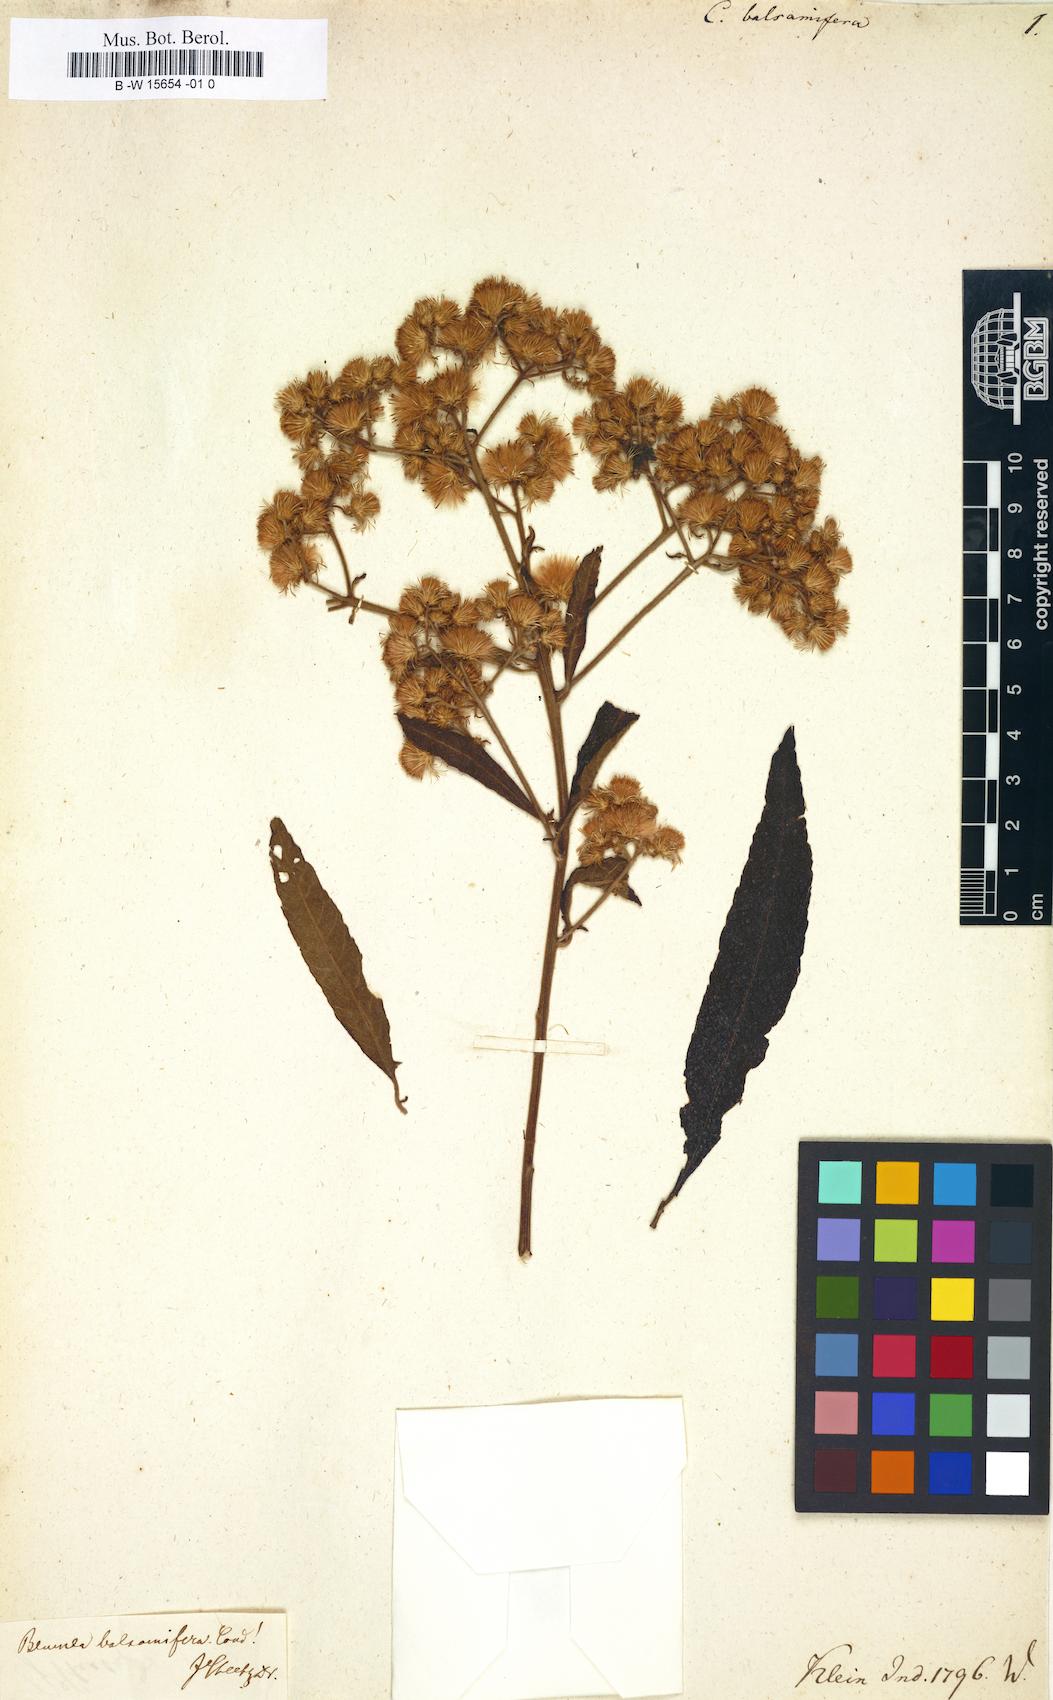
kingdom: Plantae
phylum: Tracheophyta
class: Magnoliopsida
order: Asterales
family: Asteraceae
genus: Blumea
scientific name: Blumea balsamifera
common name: Ngai camphor
